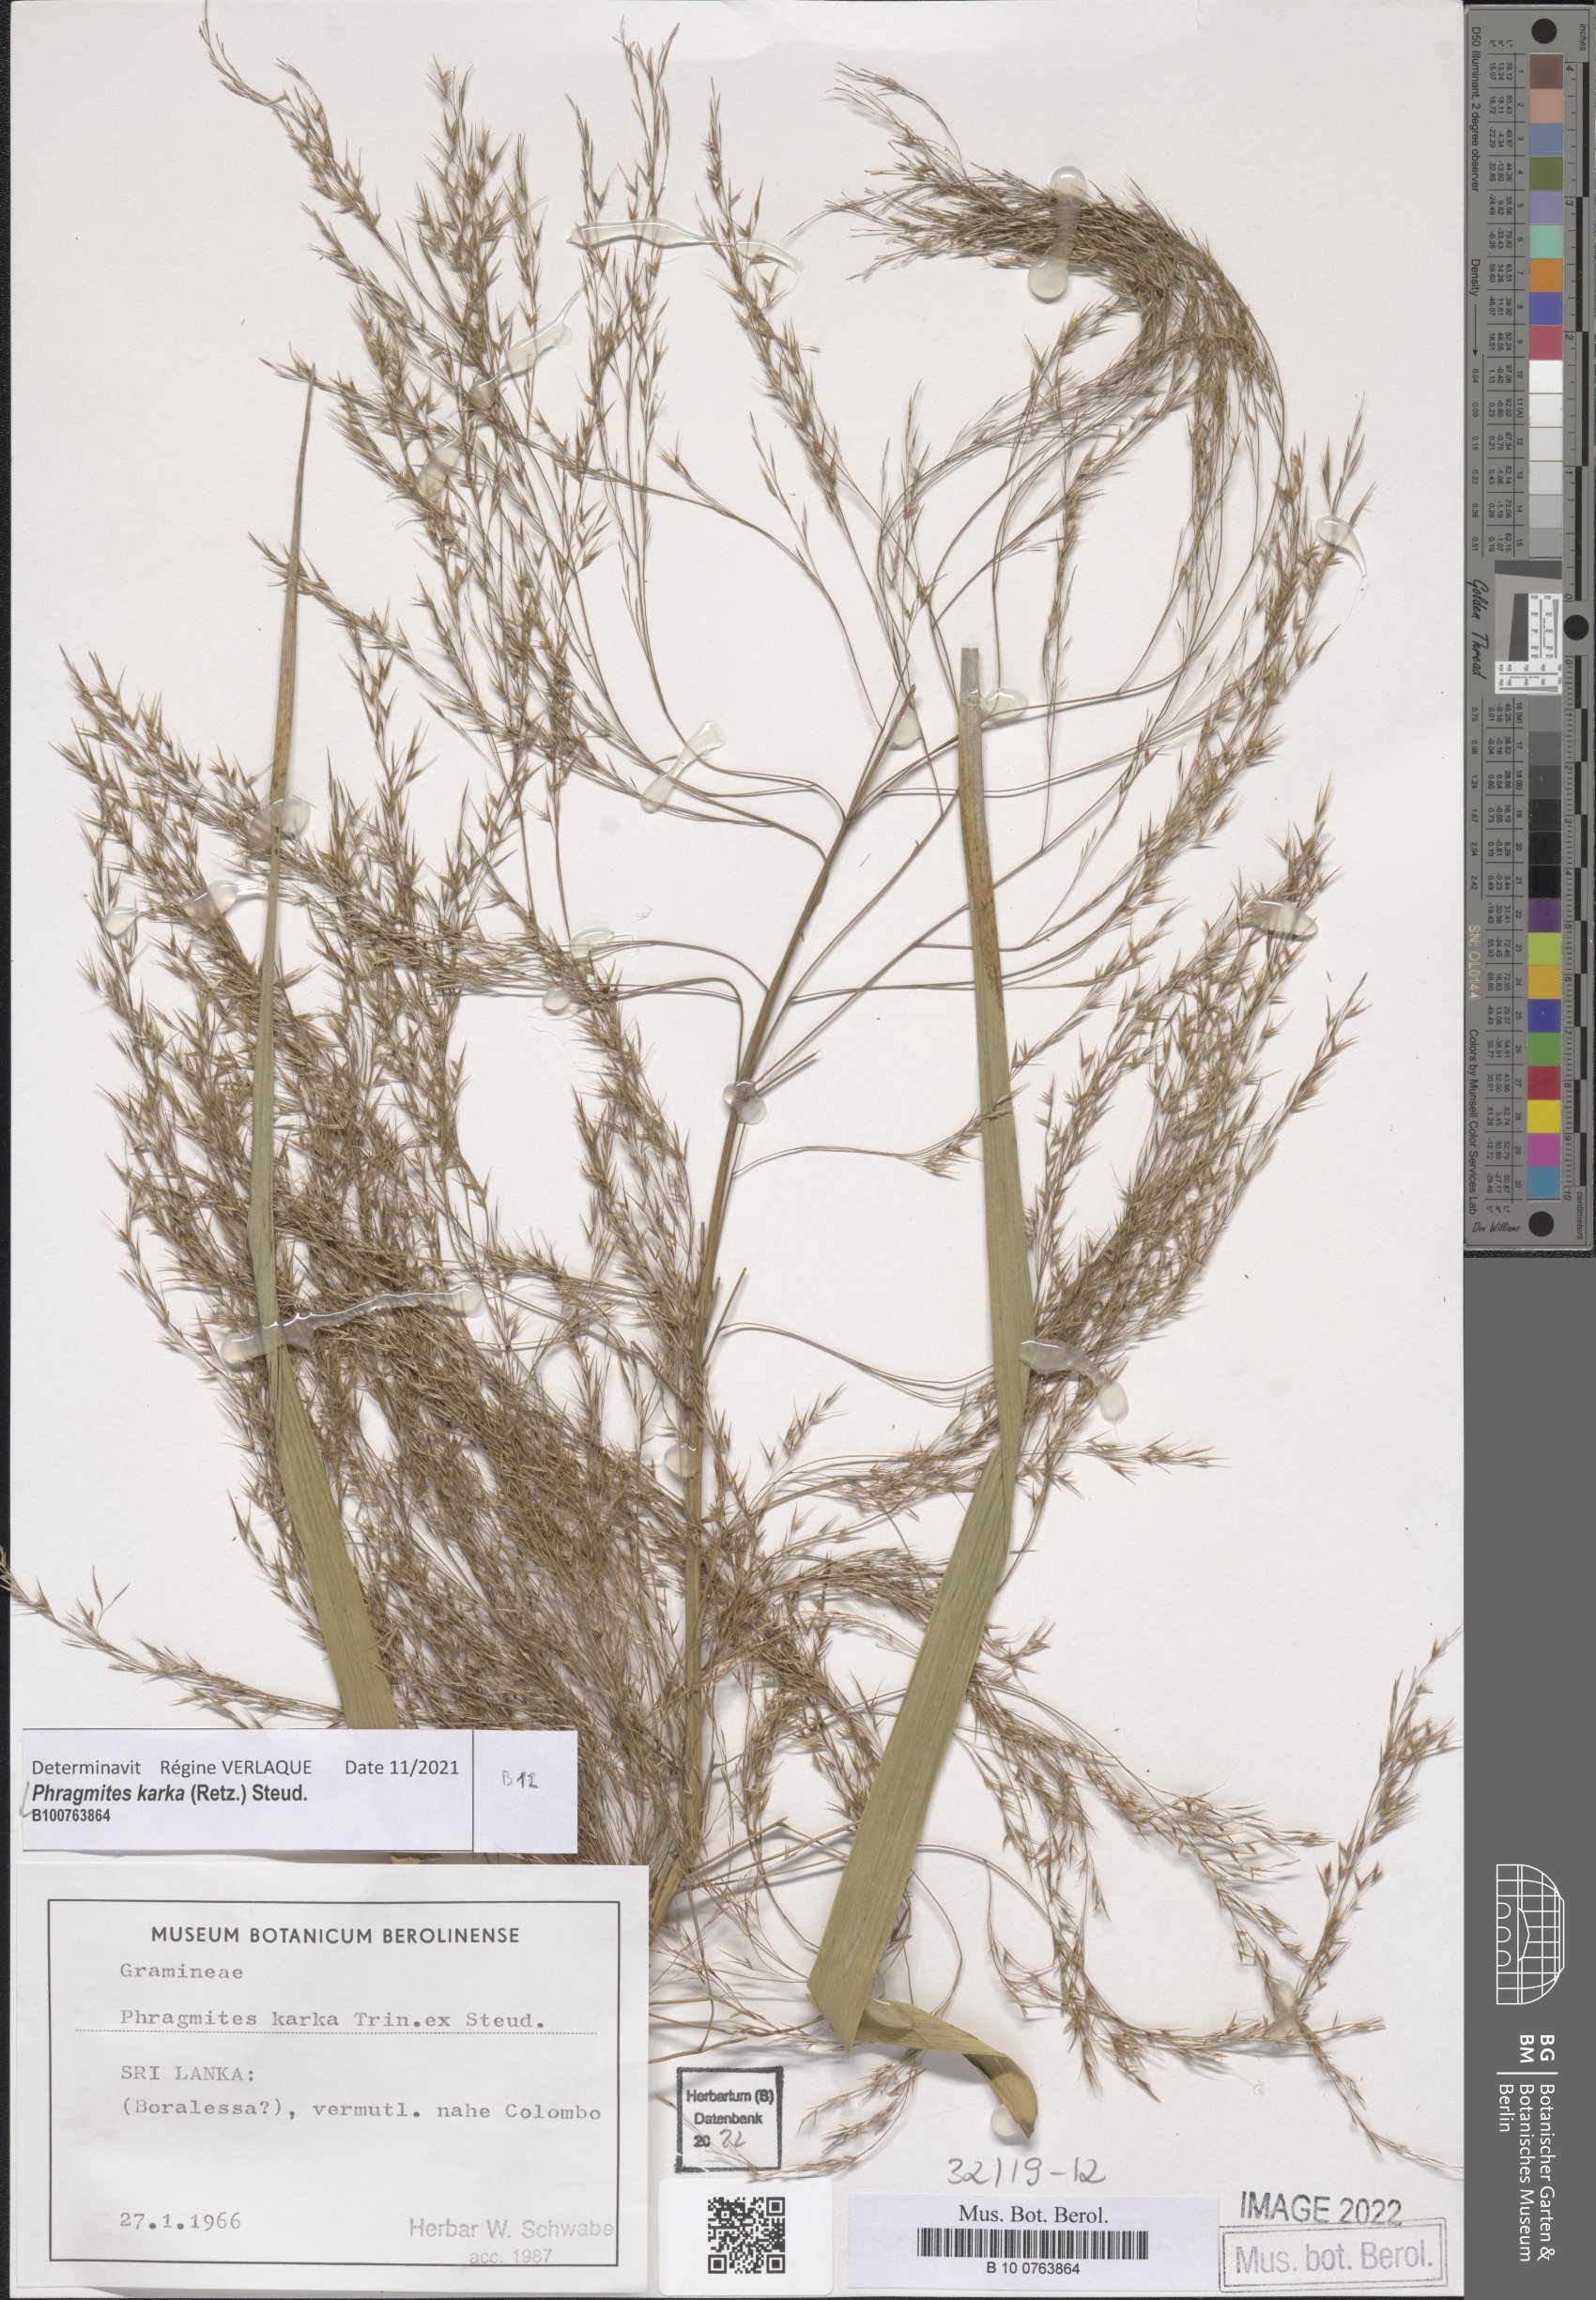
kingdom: Plantae
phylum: Tracheophyta
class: Liliopsida
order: Poales
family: Poaceae
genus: Phragmites
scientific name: Phragmites karka
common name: Tropical reed
